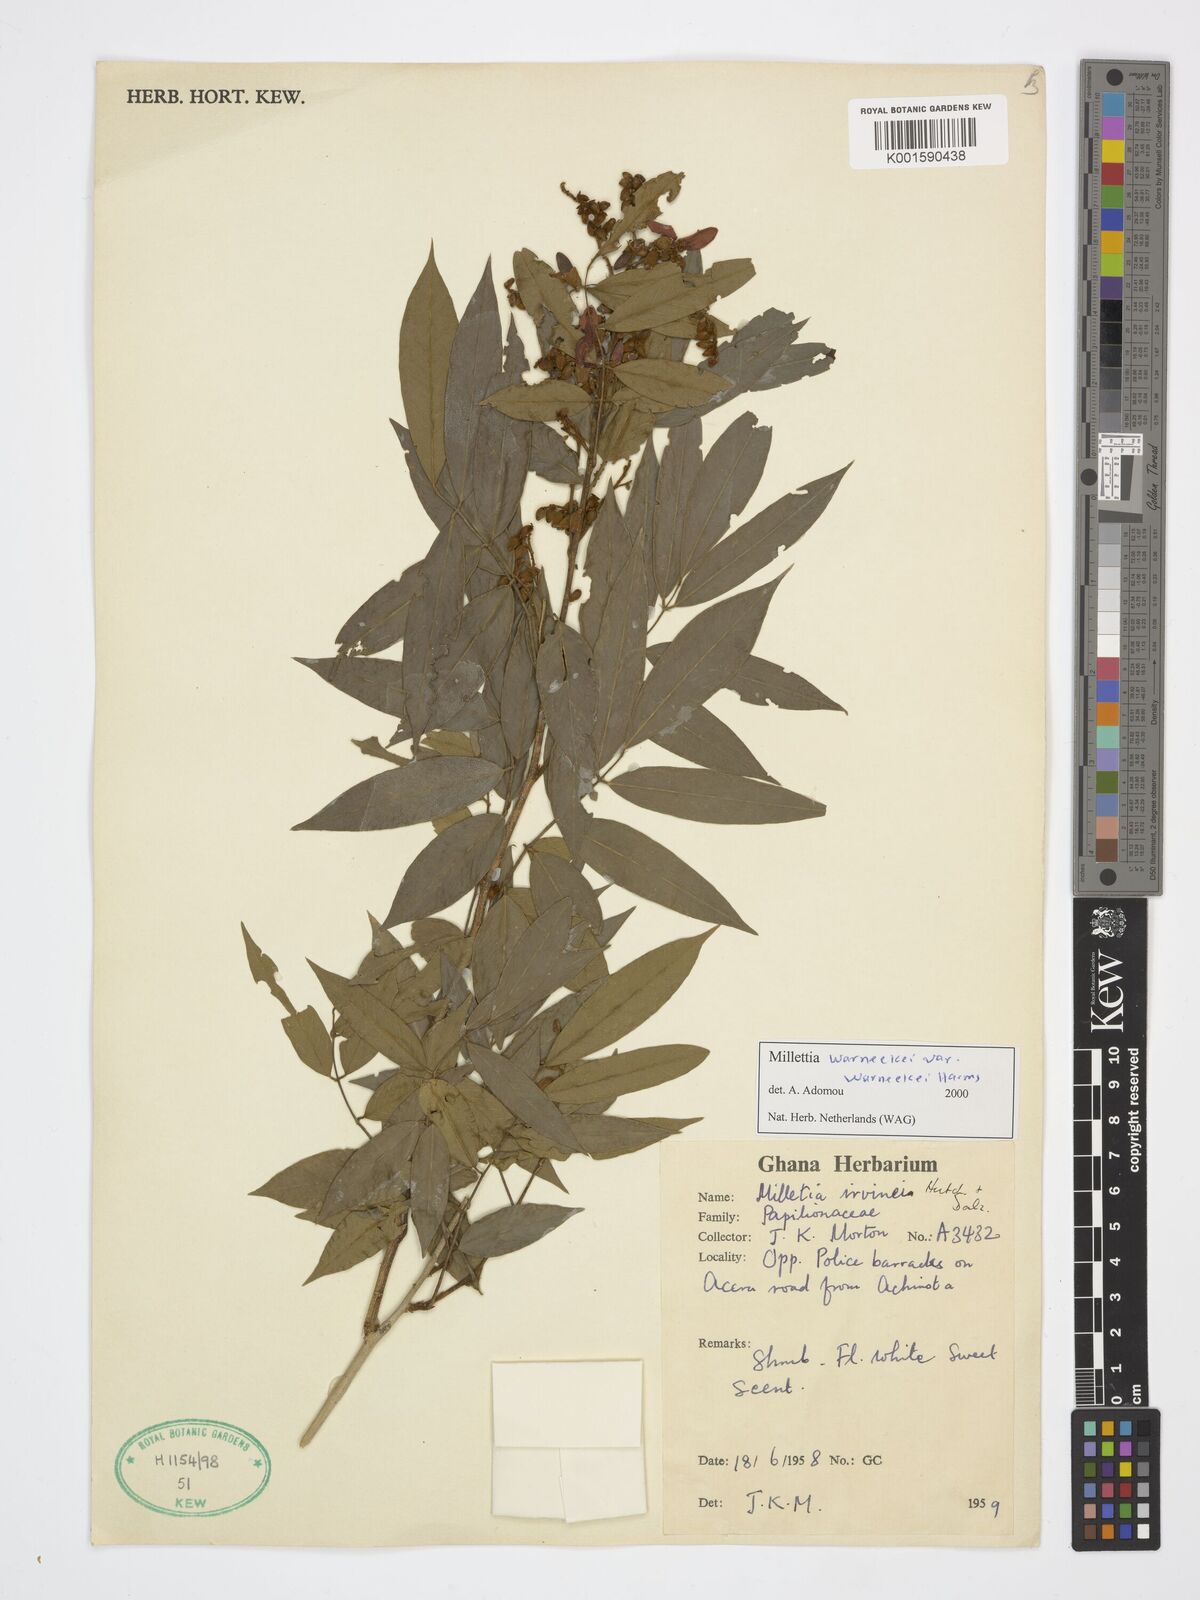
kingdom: Plantae
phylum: Tracheophyta
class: Magnoliopsida
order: Fabales
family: Fabaceae
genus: Millettia
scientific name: Millettia warneckei
